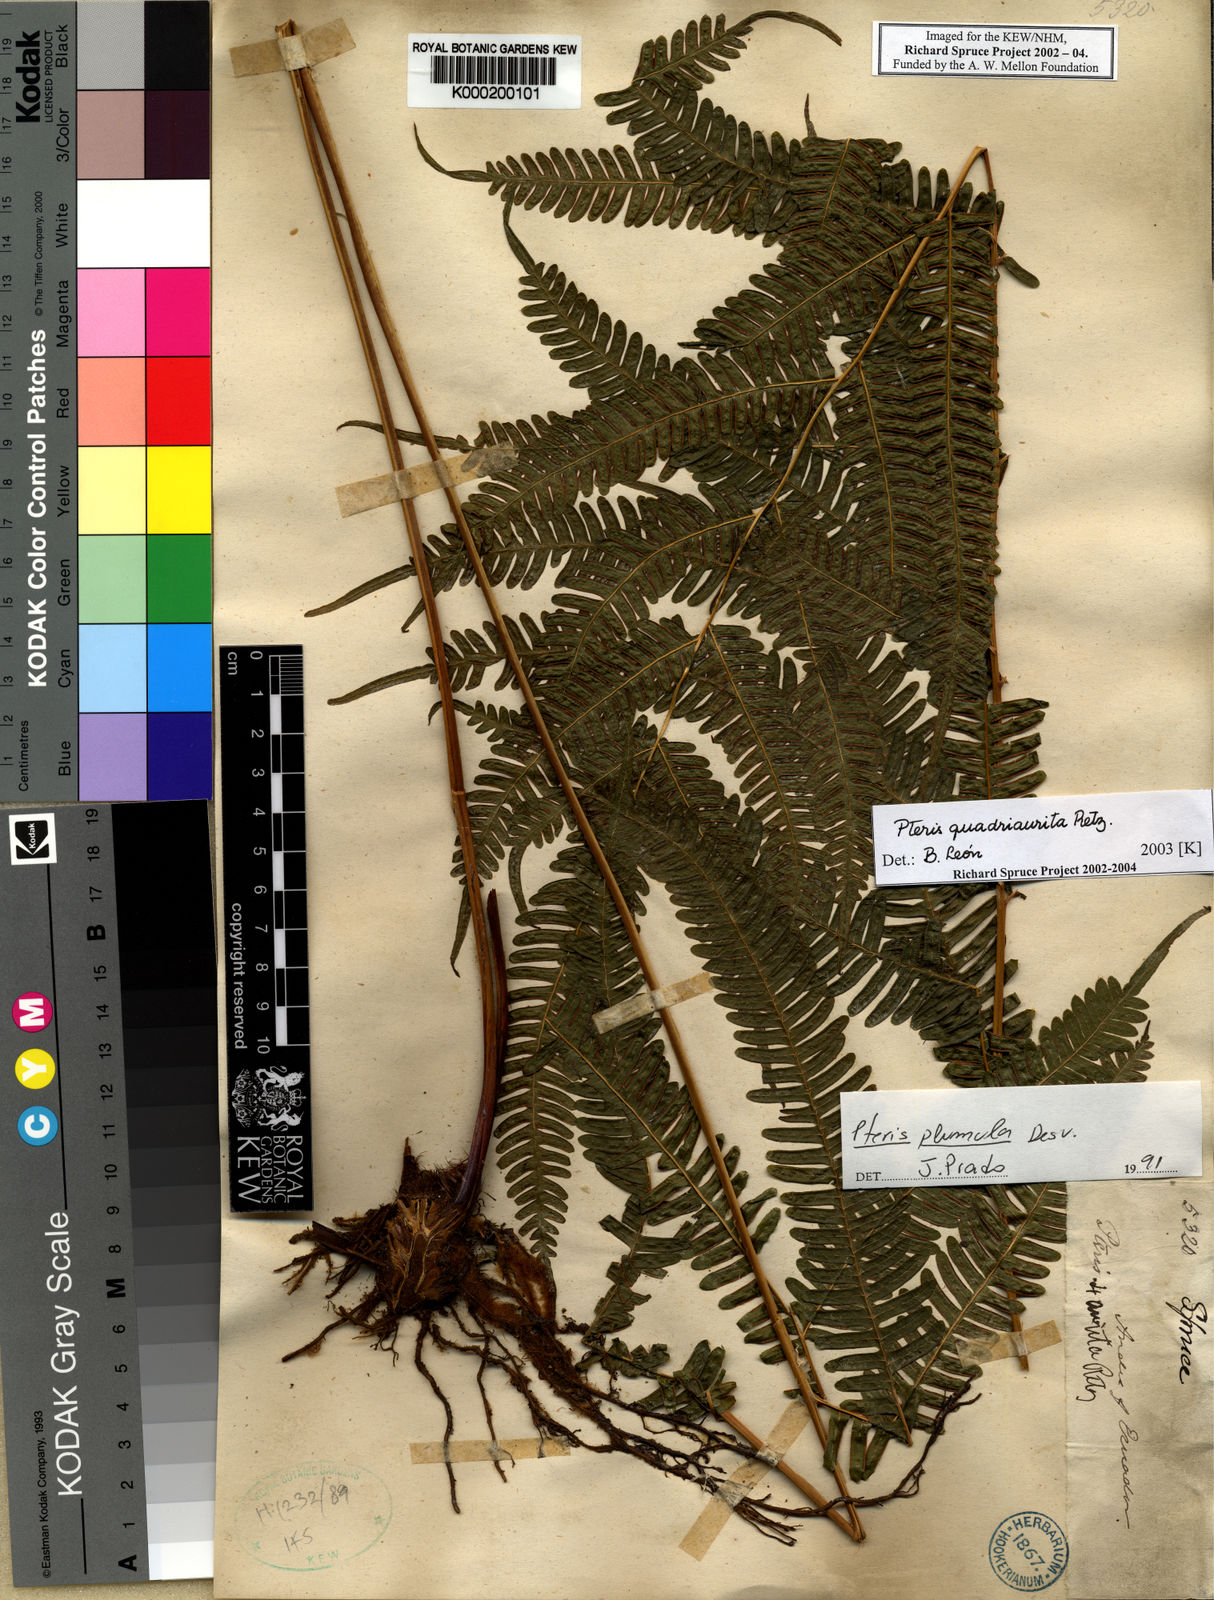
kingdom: Plantae
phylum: Tracheophyta
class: Polypodiopsida
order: Polypodiales
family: Pteridaceae
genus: Pteris
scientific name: Pteris quadriaurita
